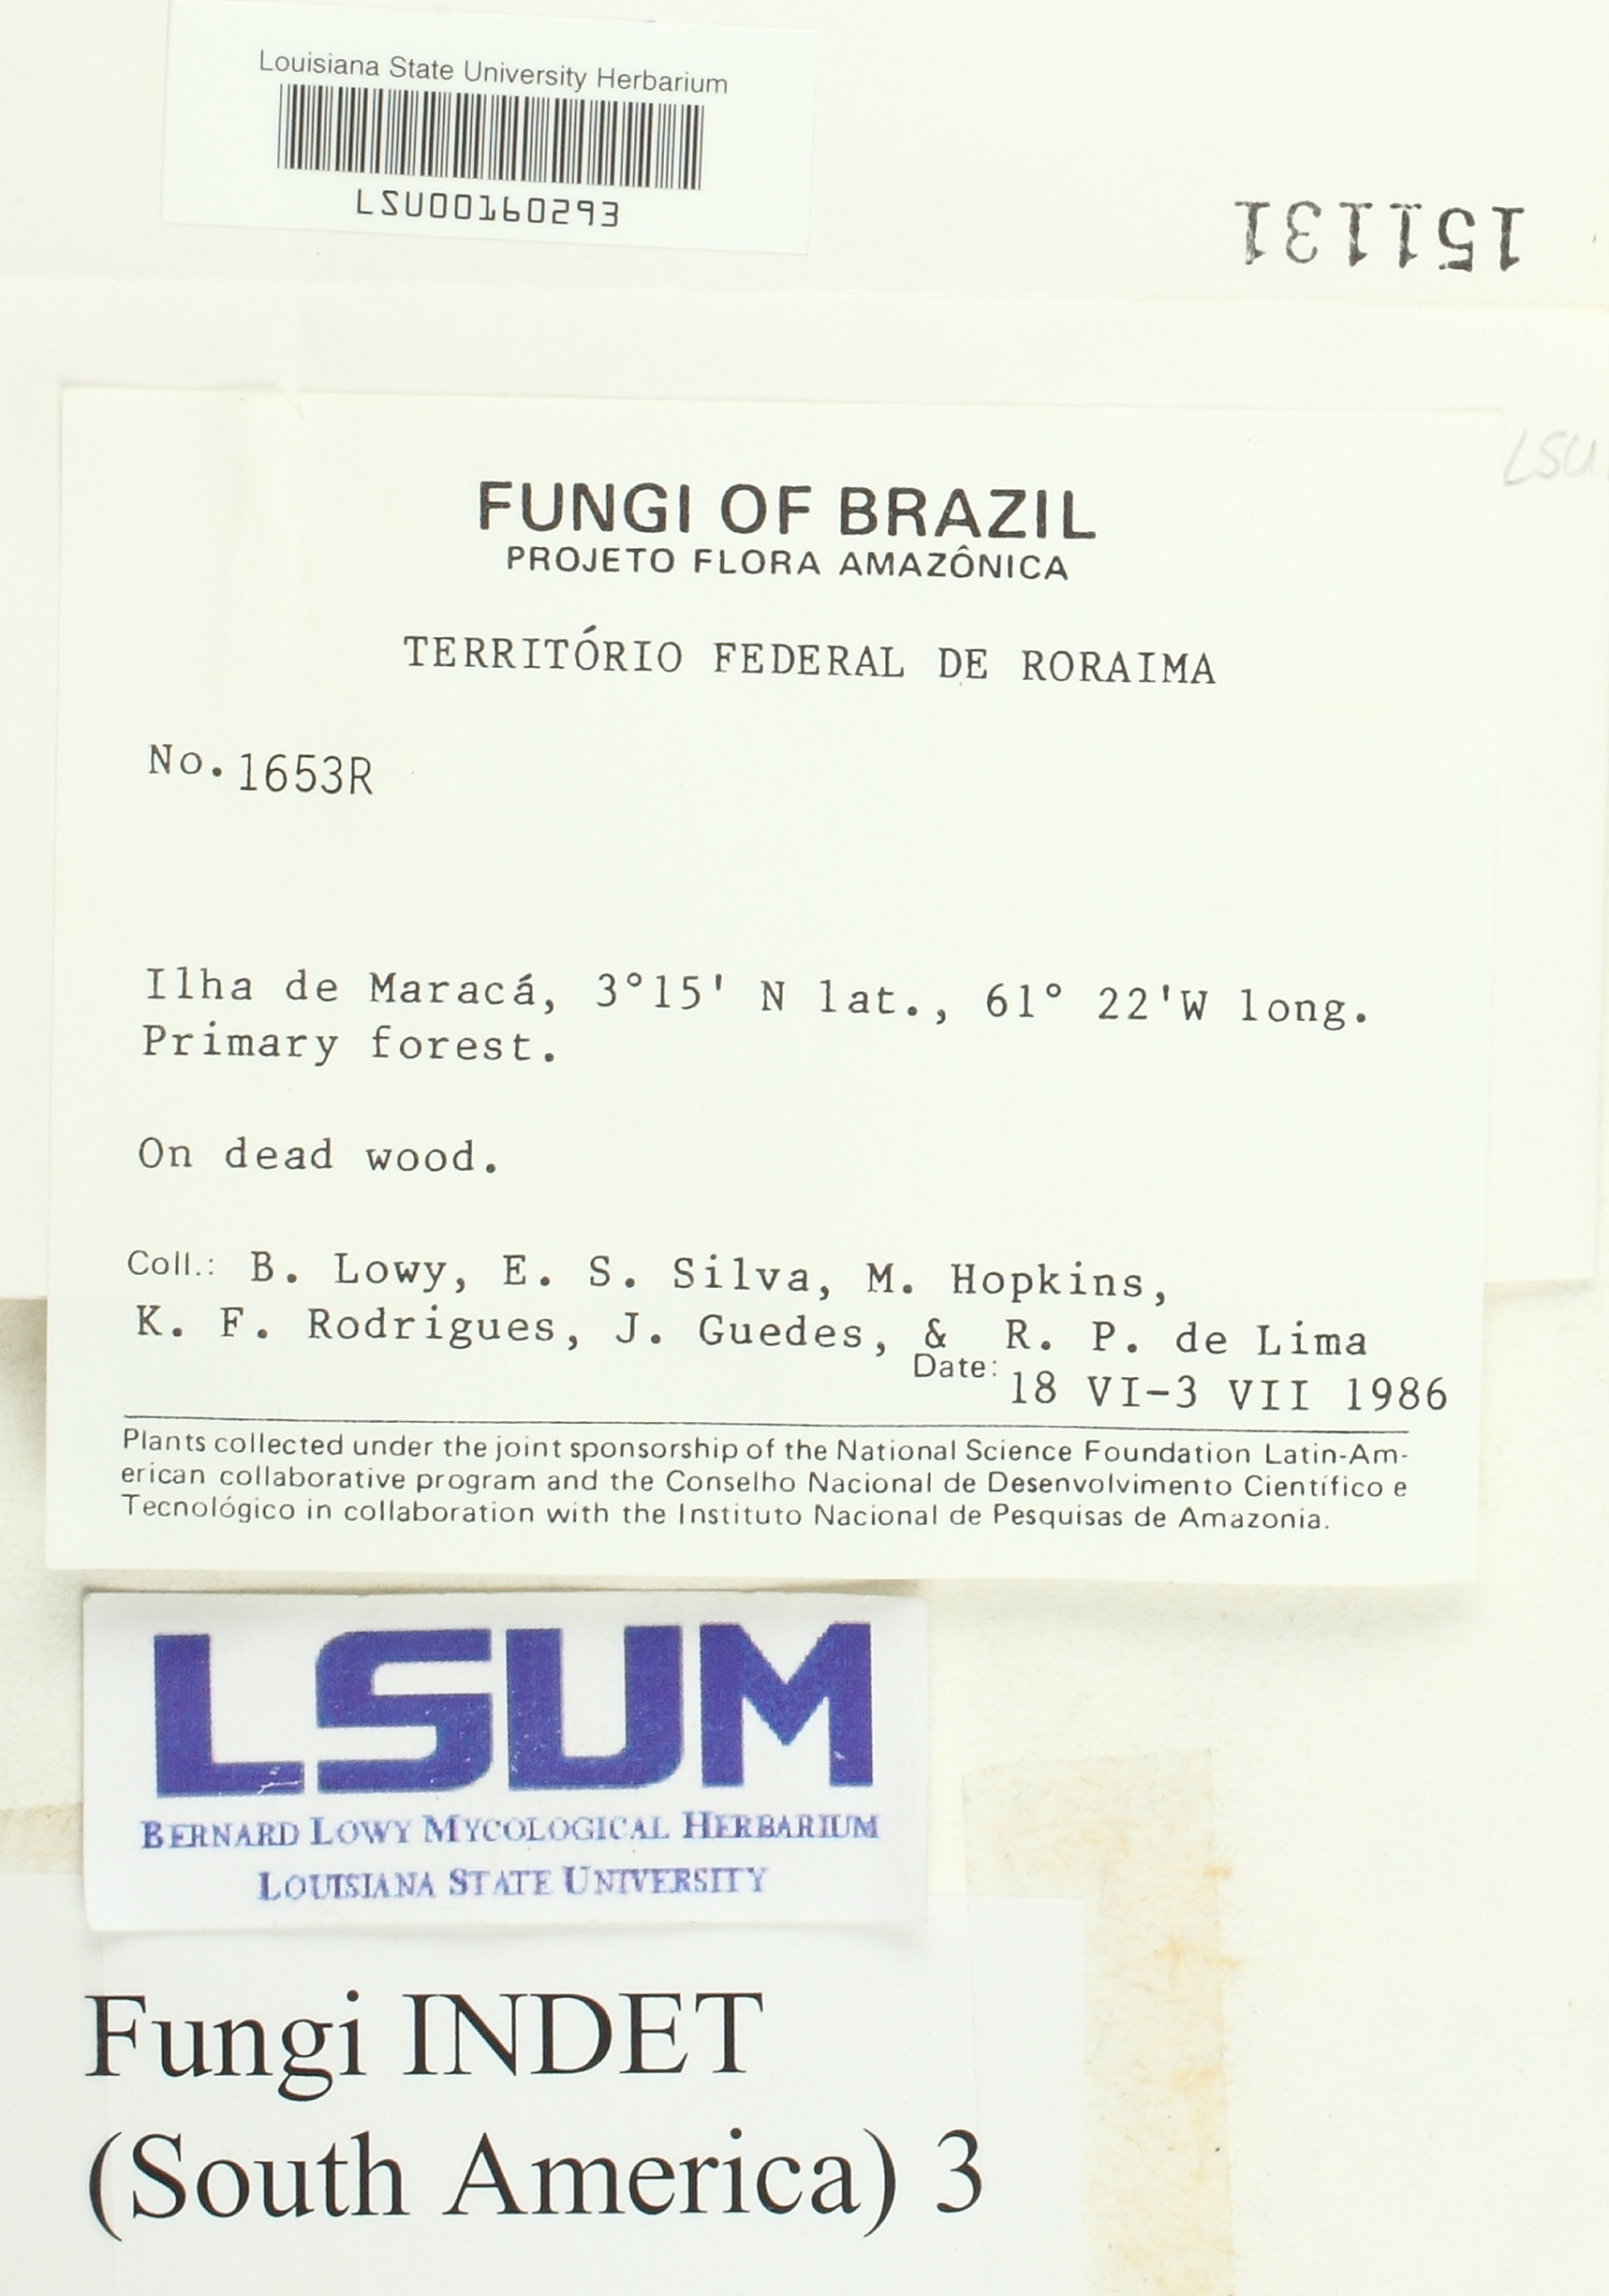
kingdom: Fungi
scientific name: Fungi
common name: Fungi
